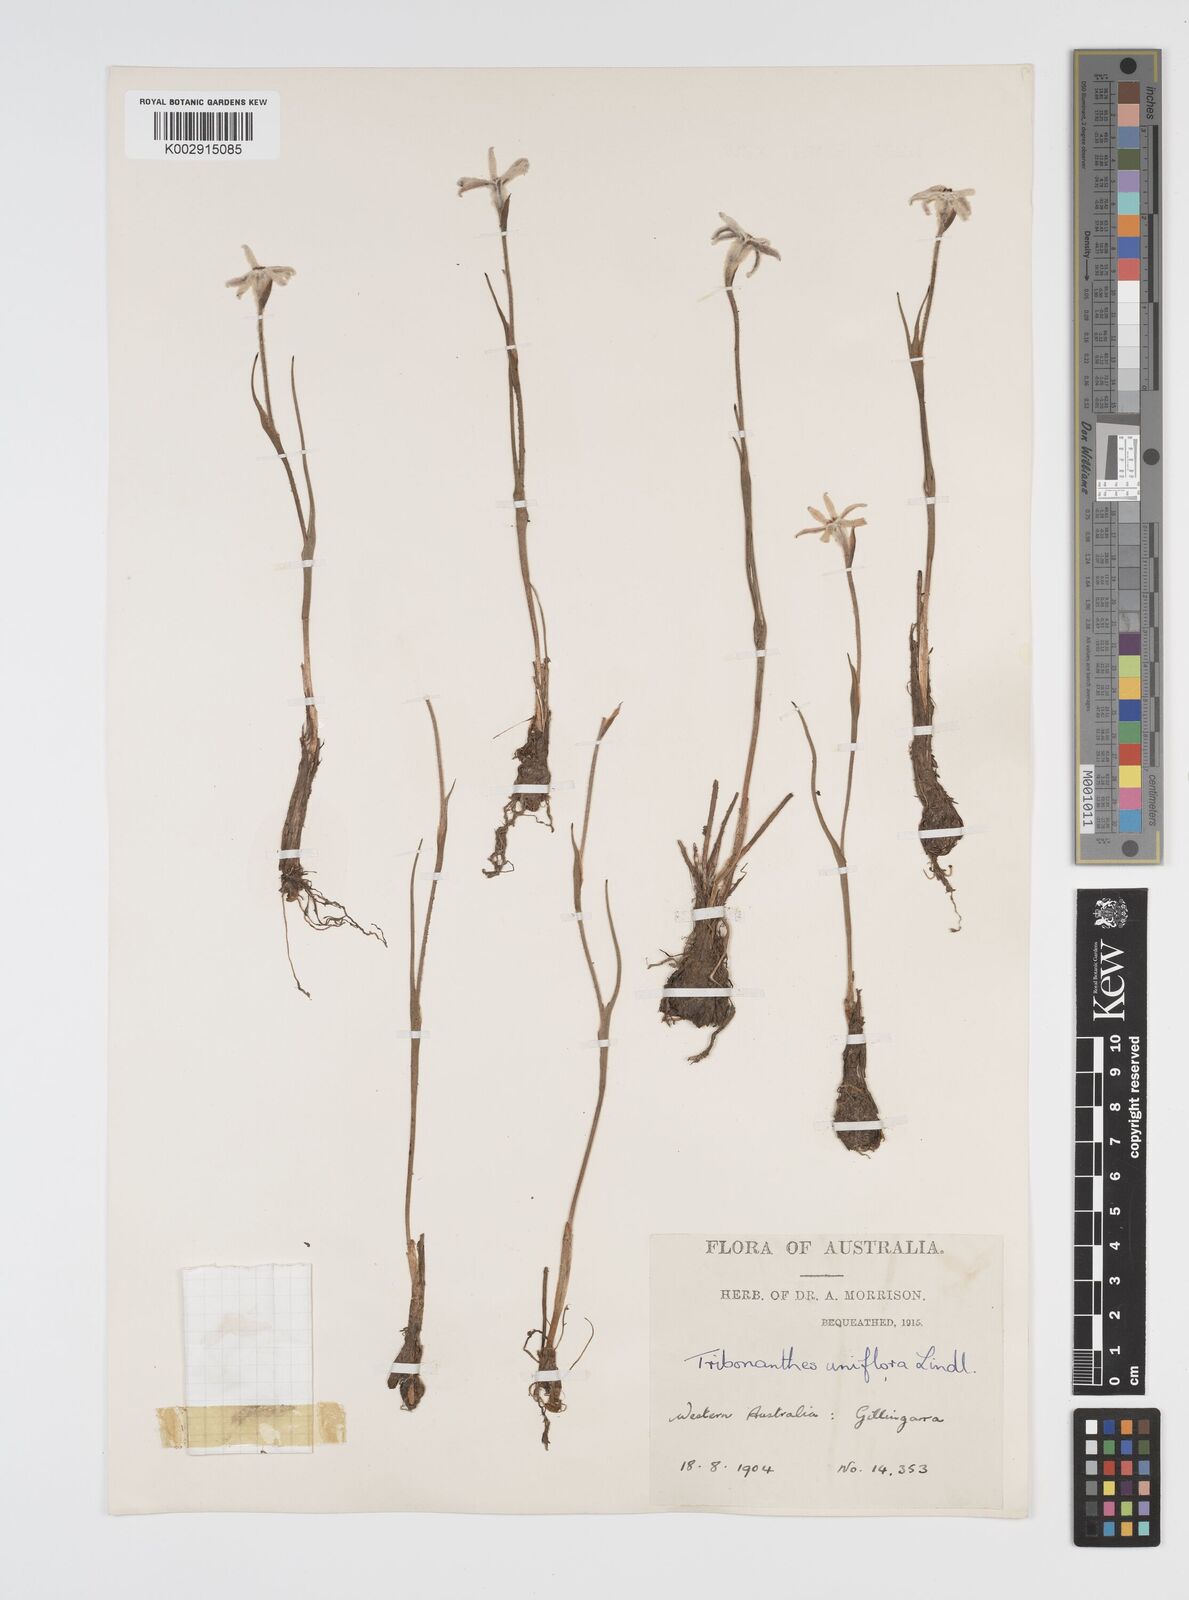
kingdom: Plantae
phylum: Tracheophyta
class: Liliopsida
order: Commelinales
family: Haemodoraceae
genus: Tribonanthes
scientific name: Tribonanthes uniflora
